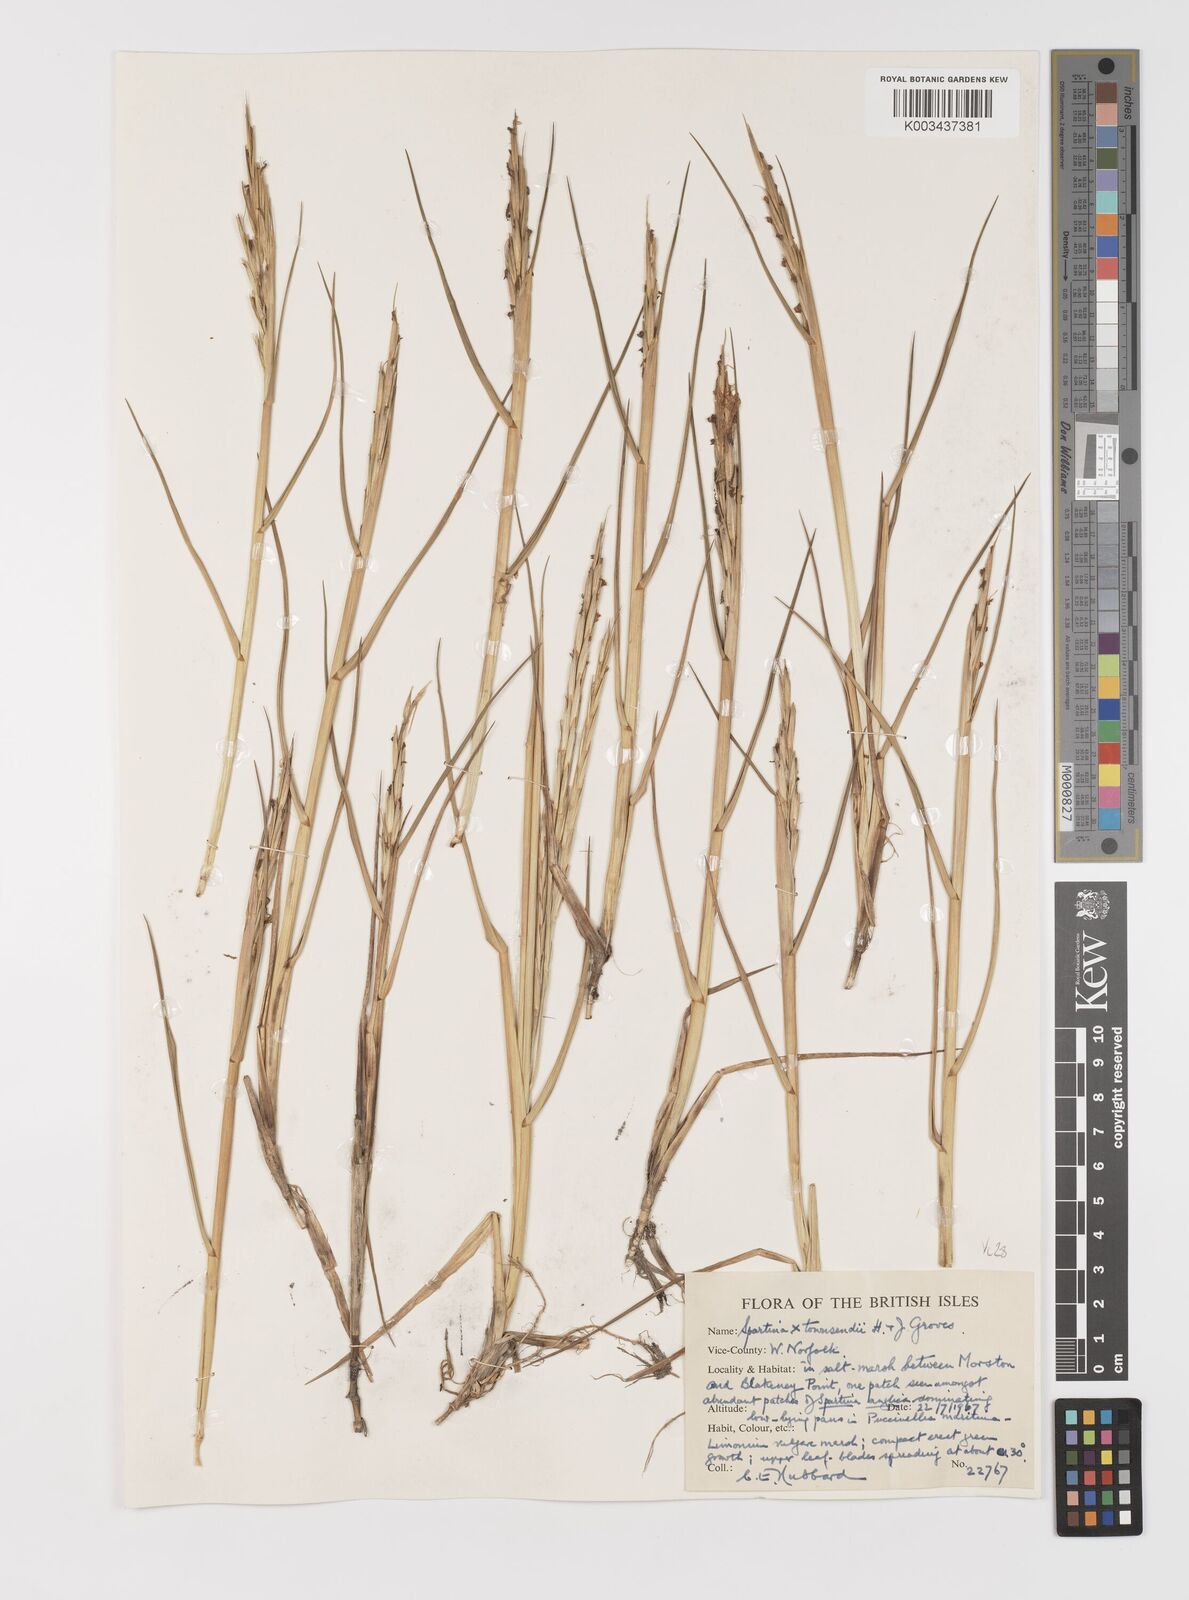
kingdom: Plantae
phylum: Tracheophyta
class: Liliopsida
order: Poales
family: Poaceae
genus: Sporobolus
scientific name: Sporobolus townsendii
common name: Townsend's cordgrass
